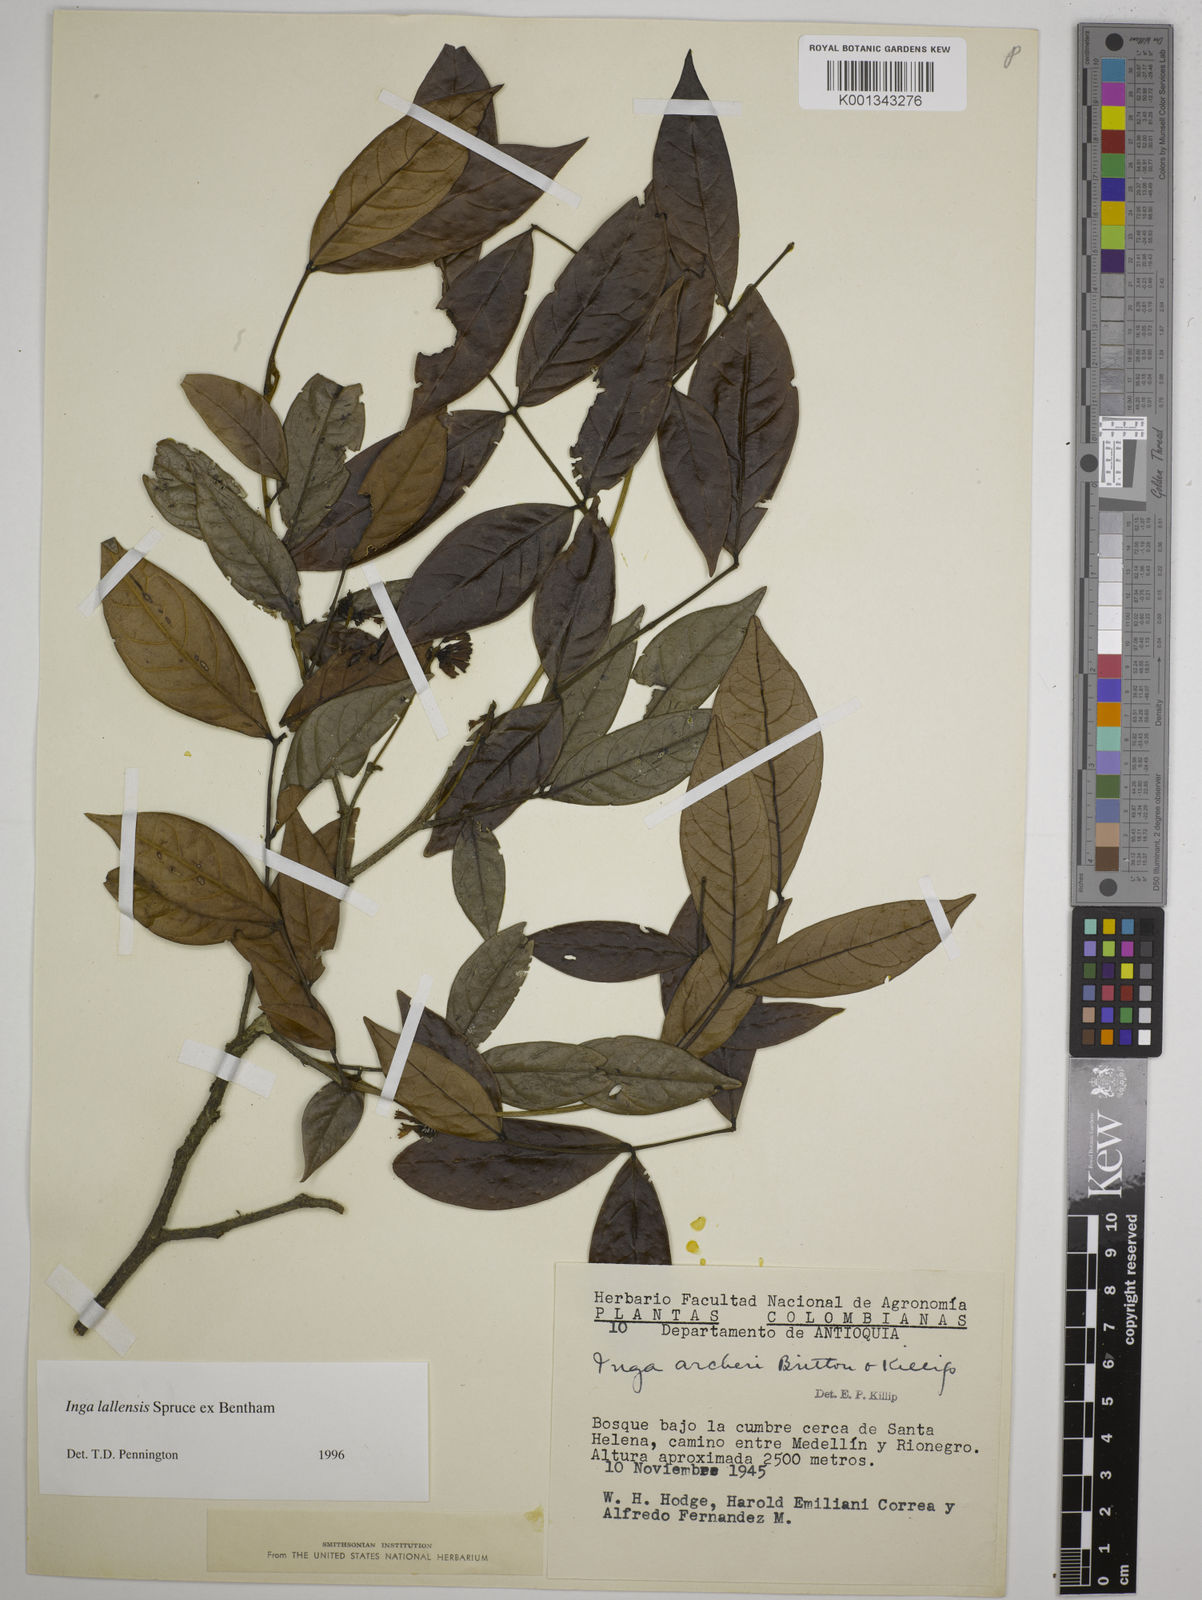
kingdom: Plantae
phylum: Tracheophyta
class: Magnoliopsida
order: Fabales
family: Fabaceae
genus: Inga
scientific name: Inga lallensis
